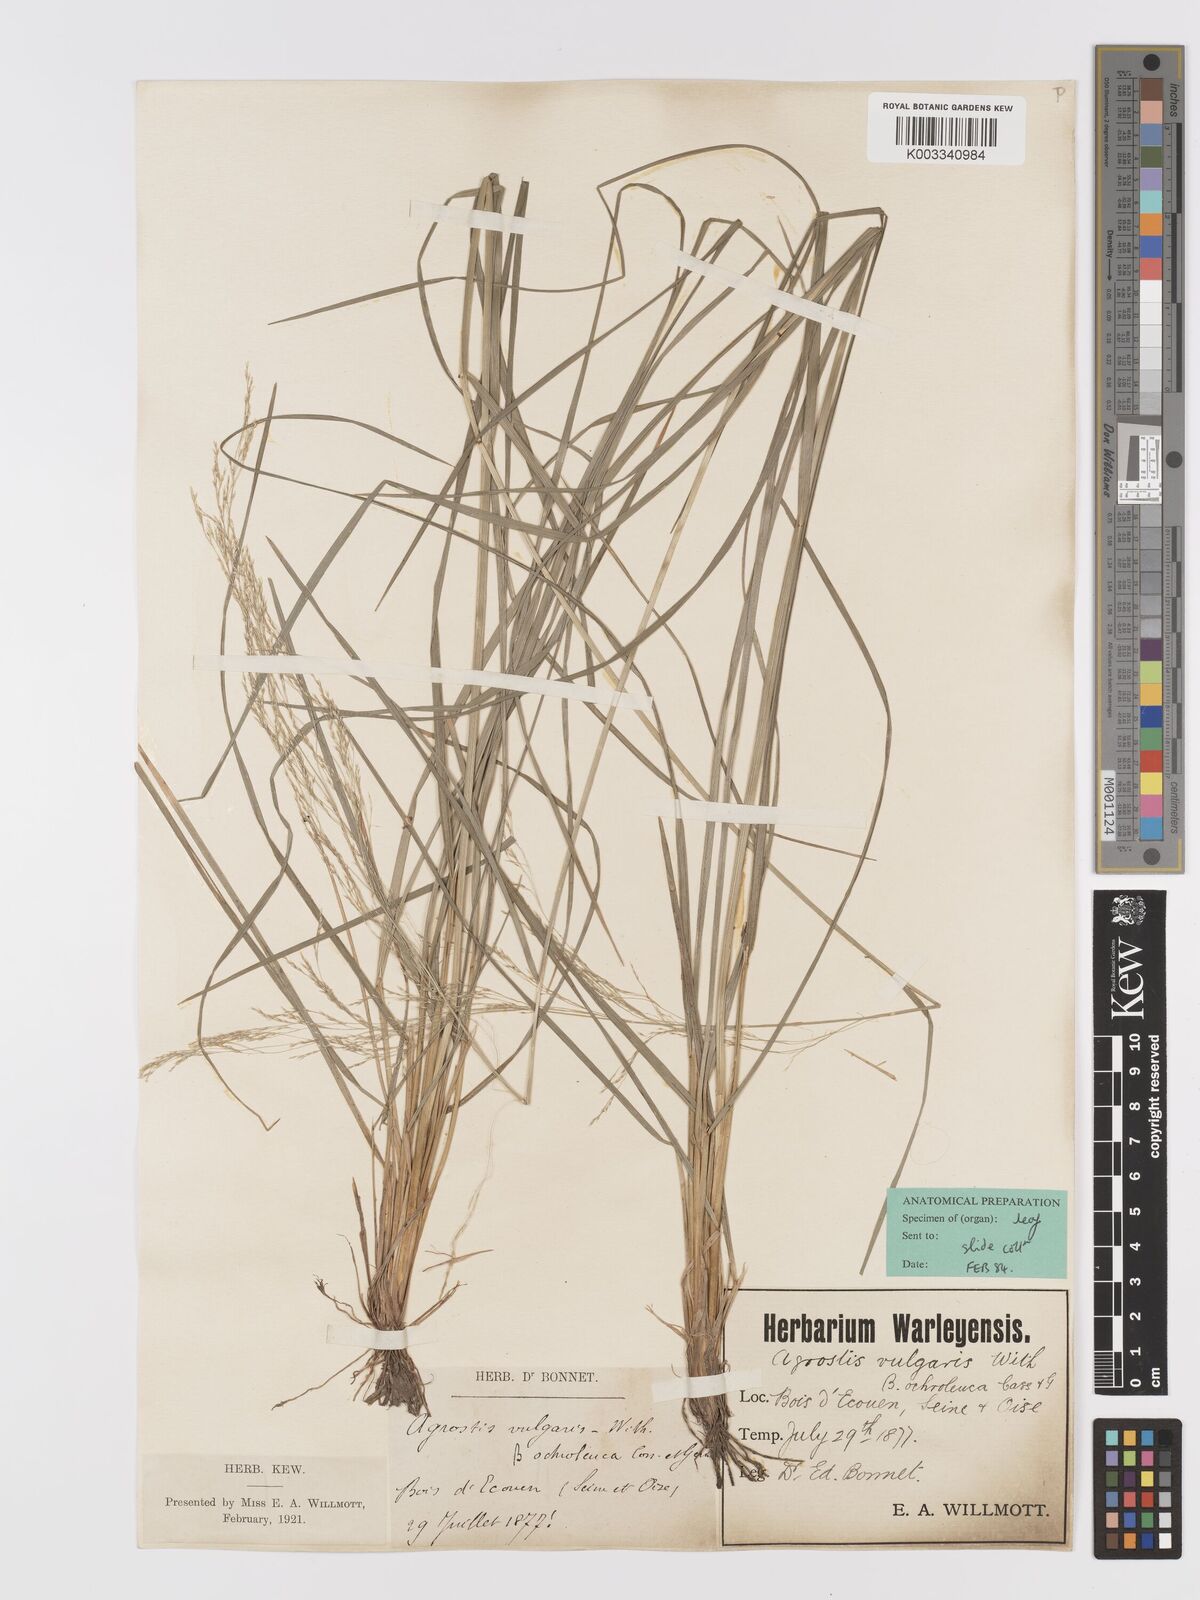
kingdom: Plantae
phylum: Tracheophyta
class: Liliopsida
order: Poales
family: Poaceae
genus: Agrostis
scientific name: Agrostis capillaris
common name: Colonial bentgrass
